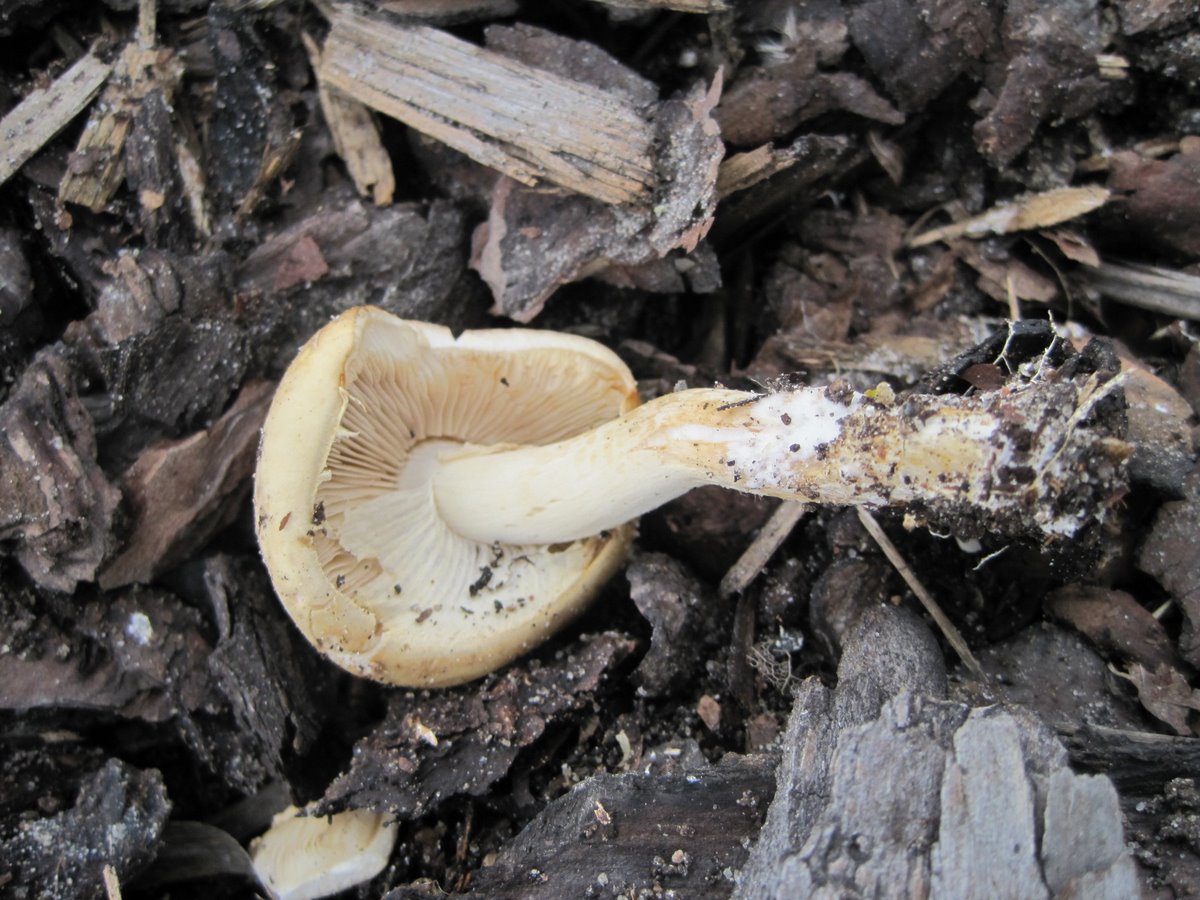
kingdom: Fungi
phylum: Basidiomycota
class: Agaricomycetes
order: Agaricales
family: Strophariaceae
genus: Agrocybe
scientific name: Agrocybe praecox
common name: tidlig agerhat
